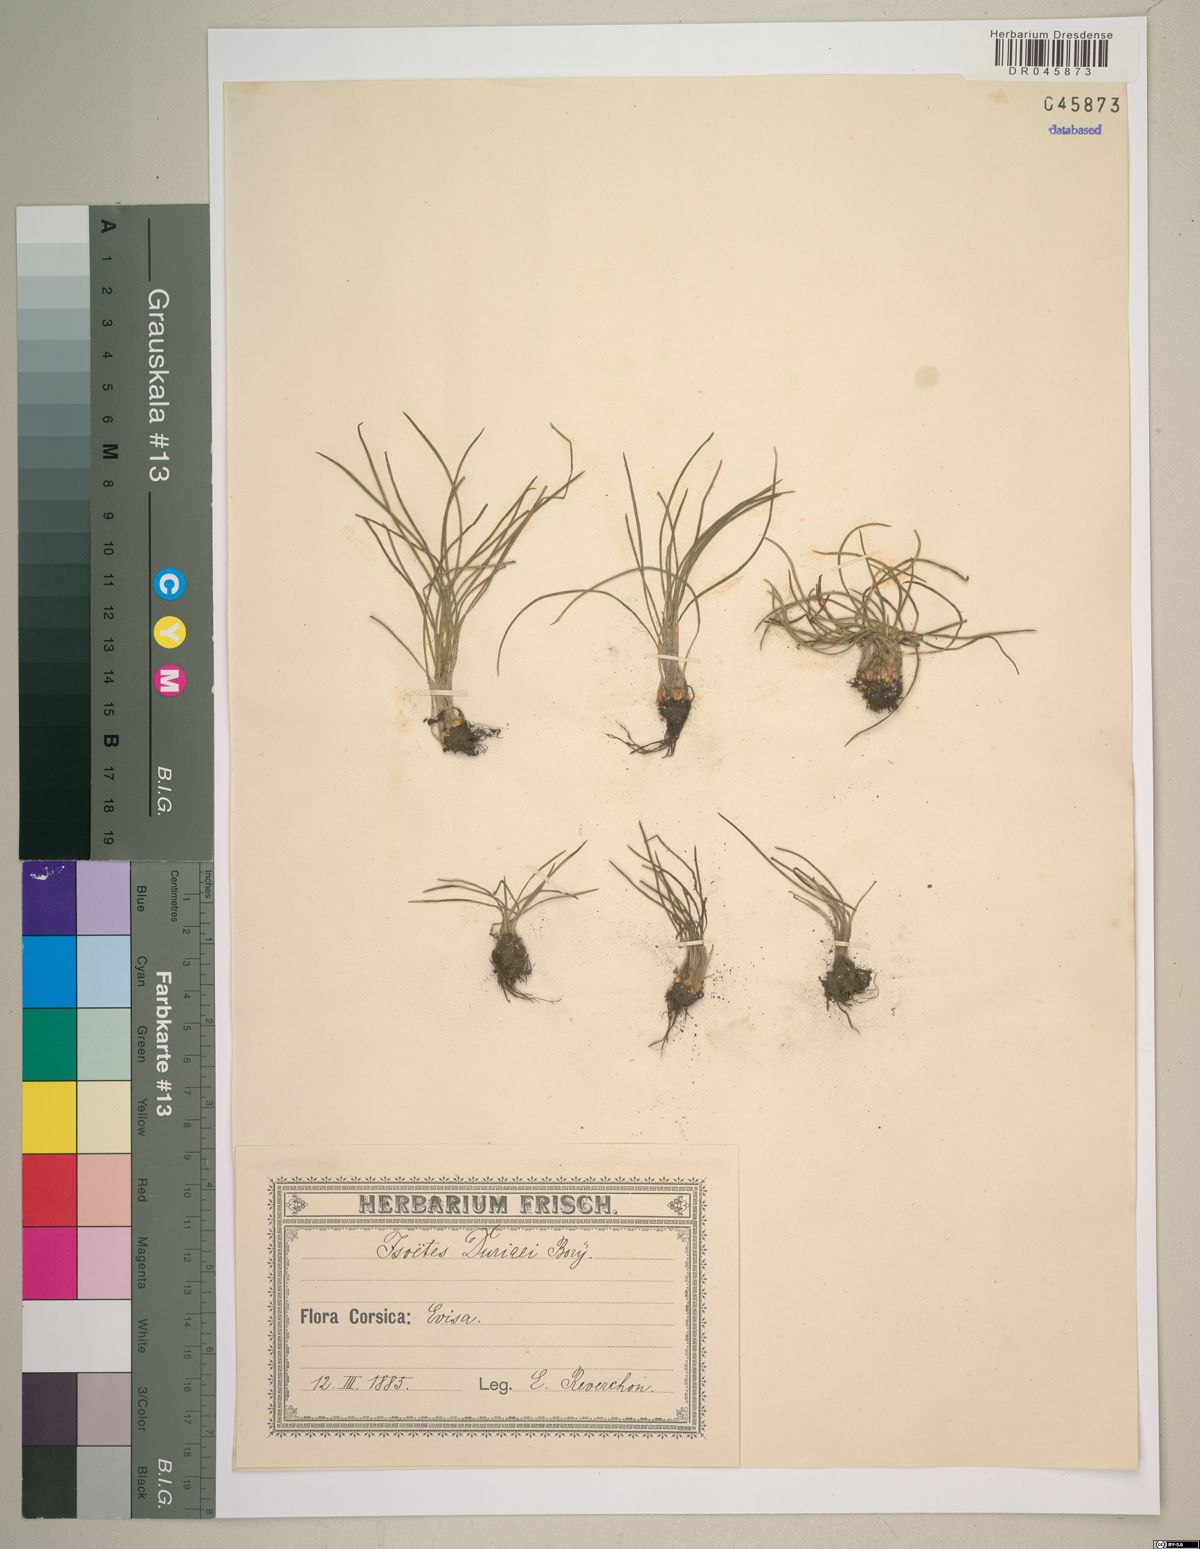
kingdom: Plantae
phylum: Tracheophyta
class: Lycopodiopsida
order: Isoetales
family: Isoetaceae
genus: Isoetes
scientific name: Isoetes duriei
